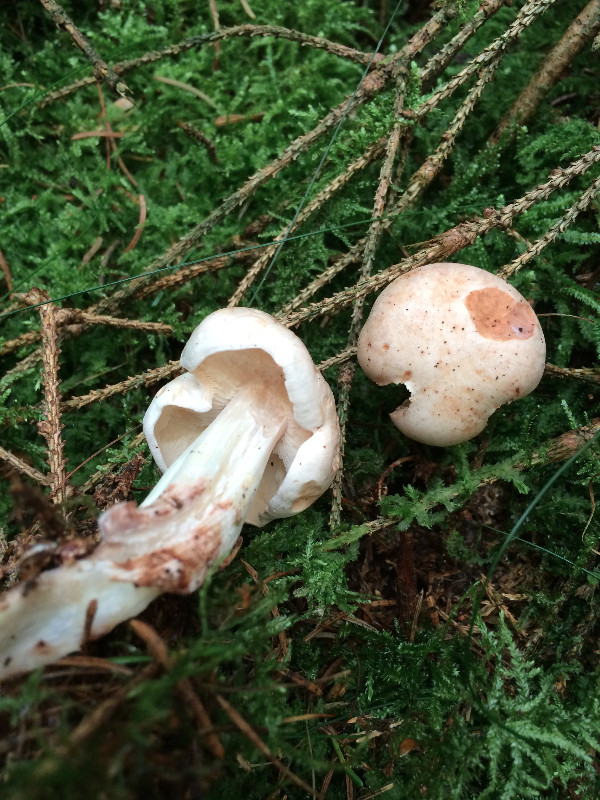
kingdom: Fungi
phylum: Basidiomycota
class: Agaricomycetes
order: Agaricales
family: Omphalotaceae
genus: Rhodocollybia
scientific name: Rhodocollybia maculata
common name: plettet fladhat
